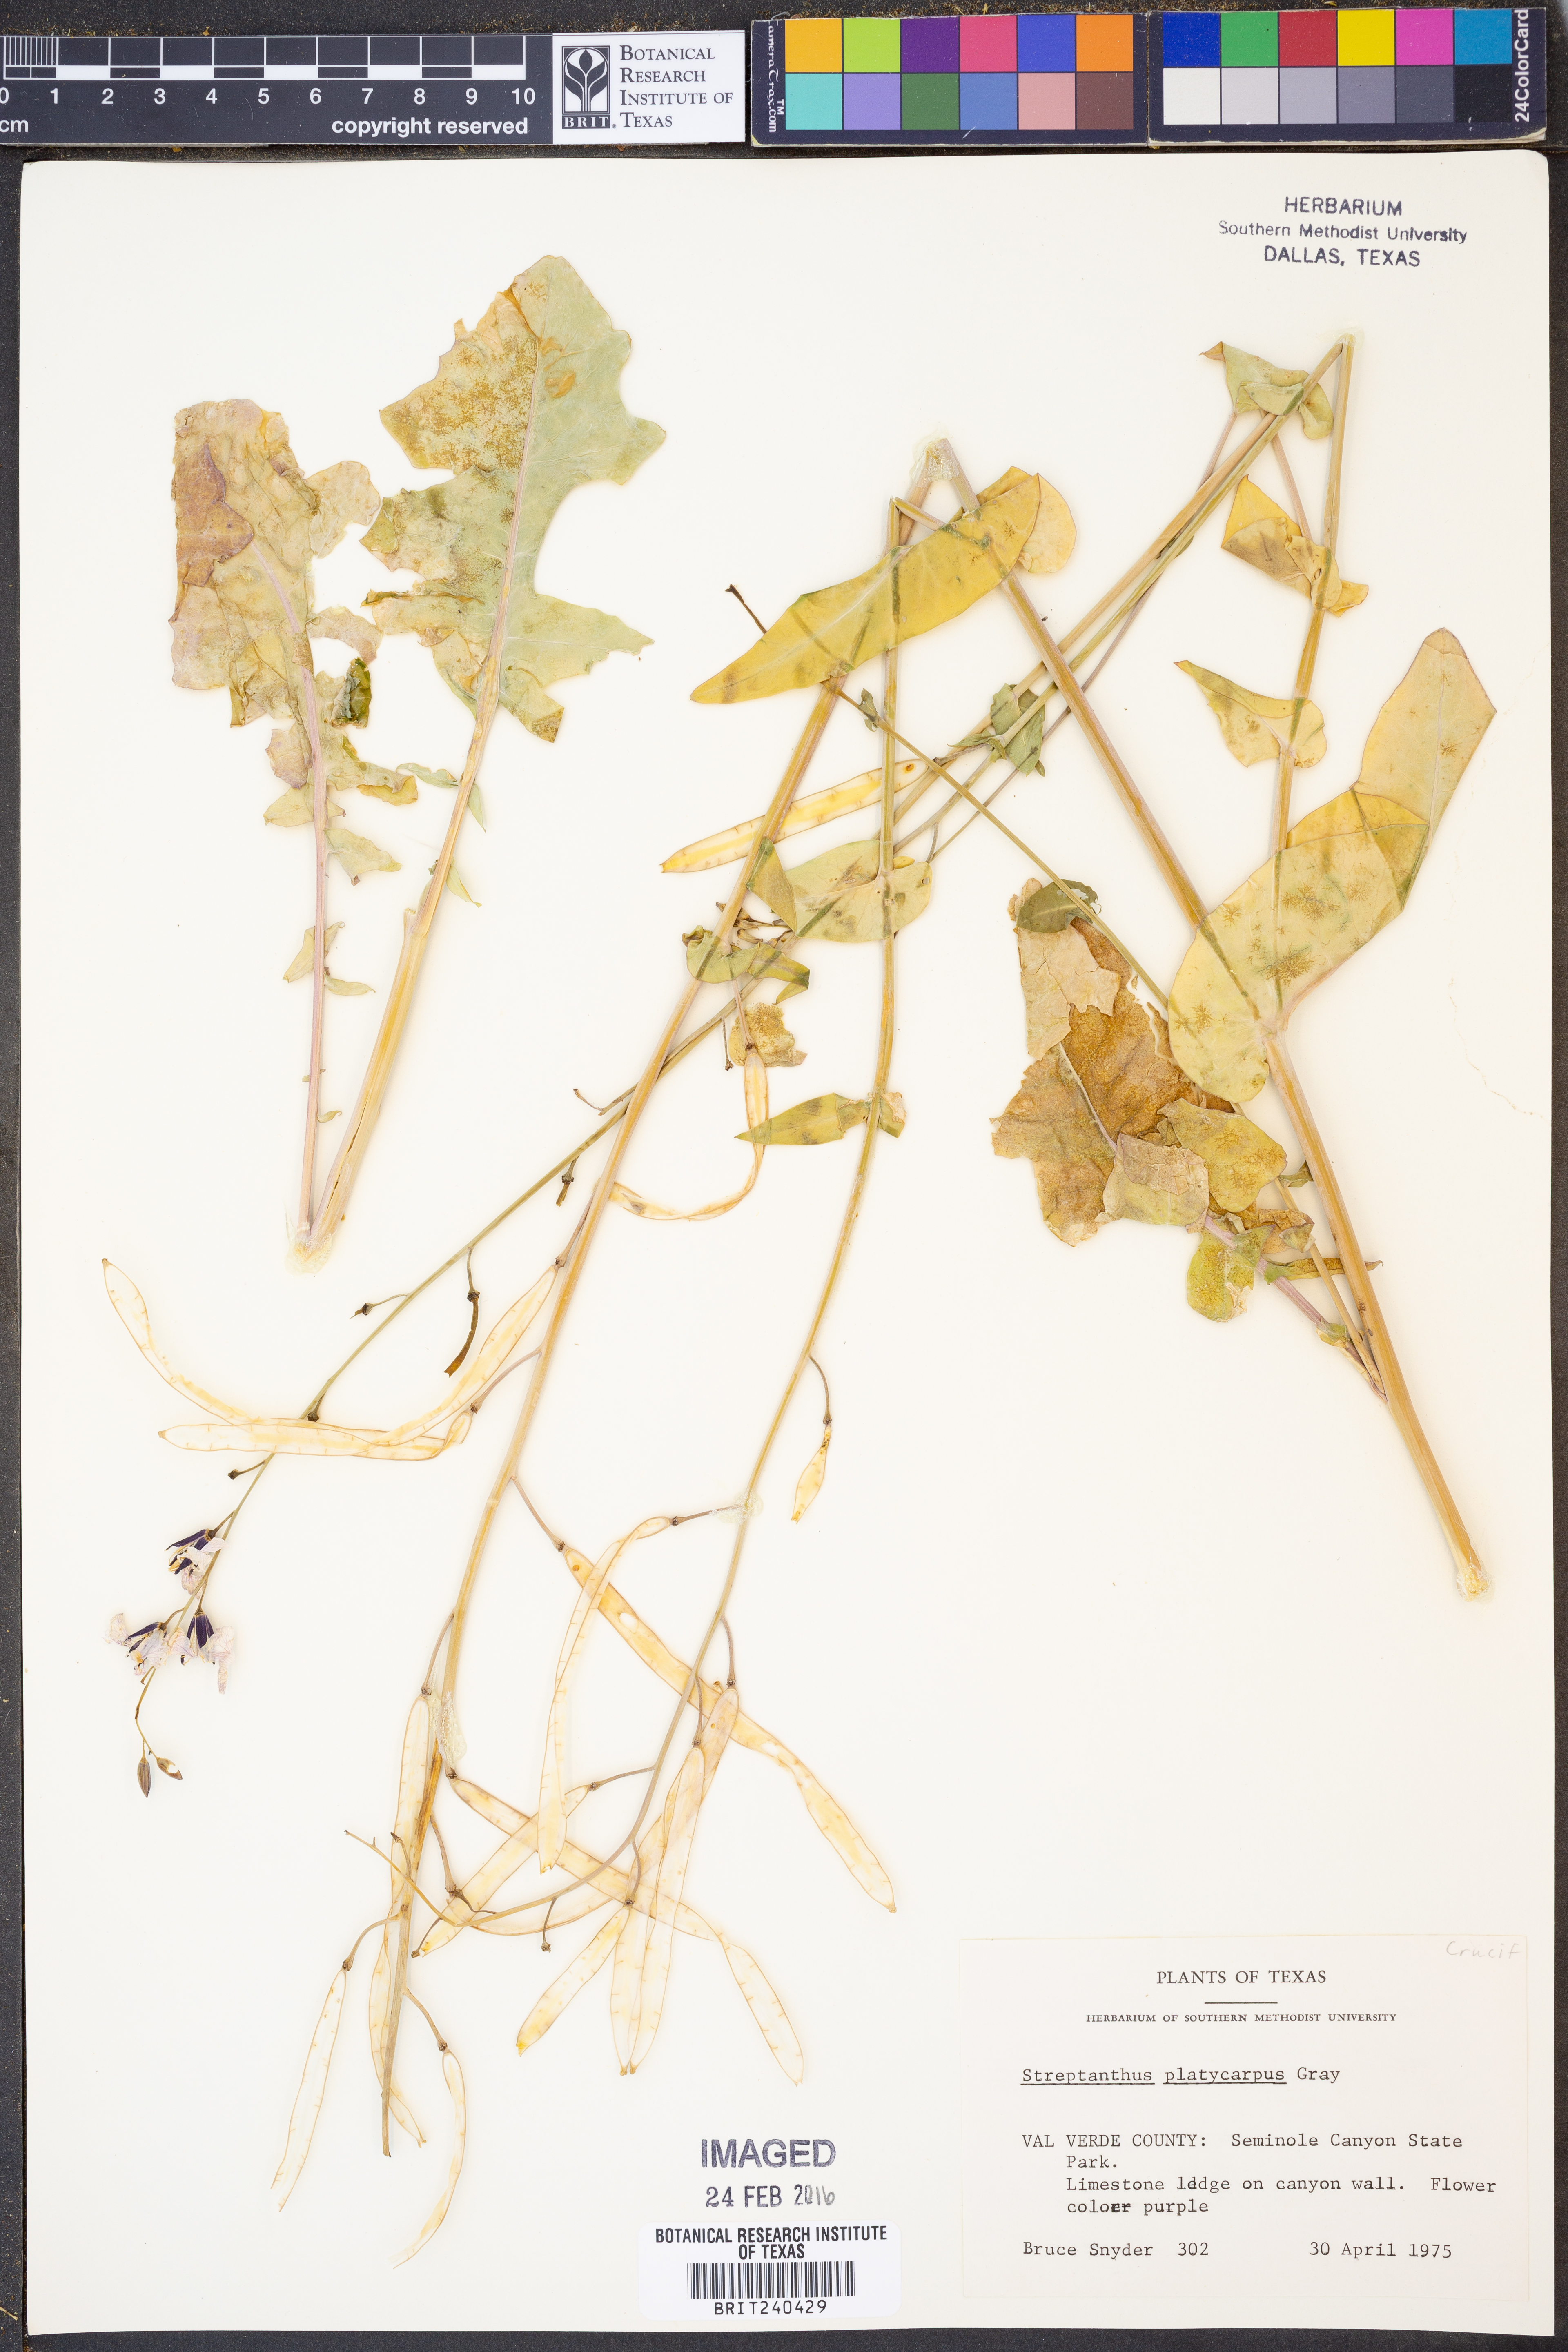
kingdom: Plantae
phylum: Tracheophyta
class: Magnoliopsida
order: Brassicales
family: Brassicaceae
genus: Streptanthus
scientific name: Streptanthus platycarpus
